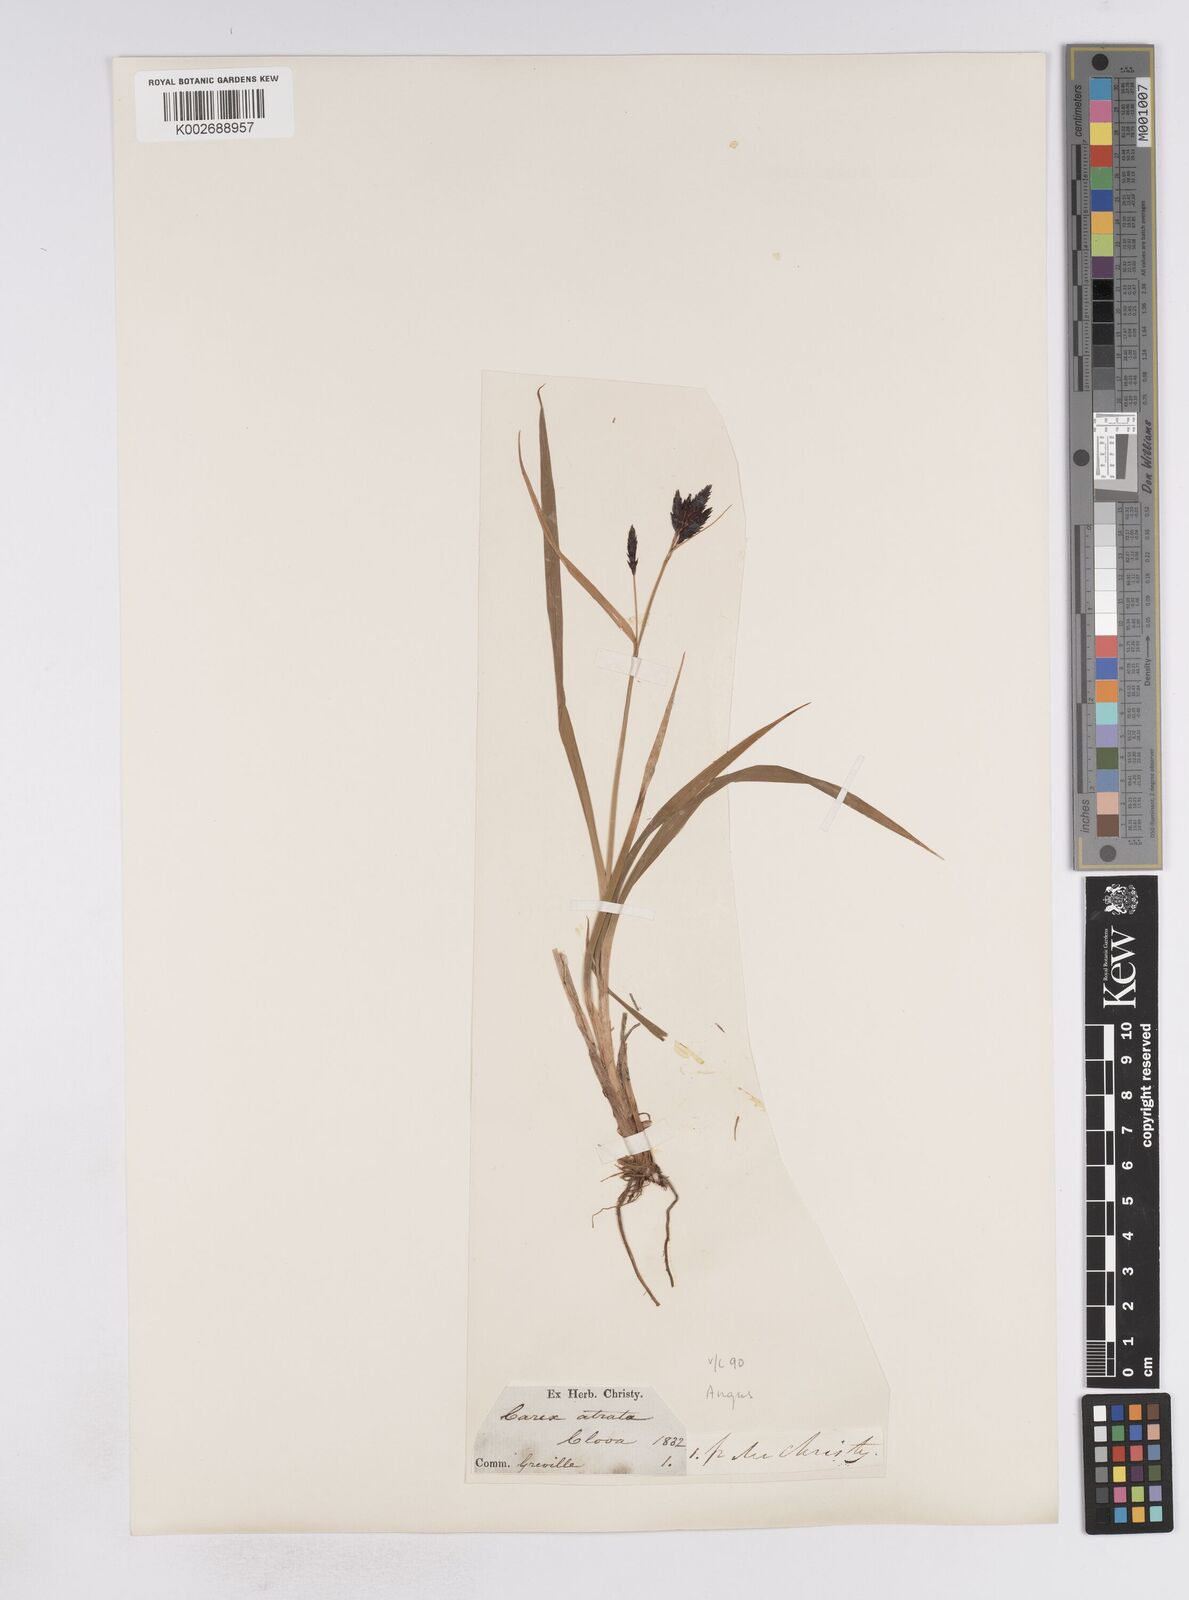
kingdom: Plantae
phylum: Tracheophyta
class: Liliopsida
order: Poales
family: Cyperaceae
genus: Carex
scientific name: Carex atrata
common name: Black alpine sedge
